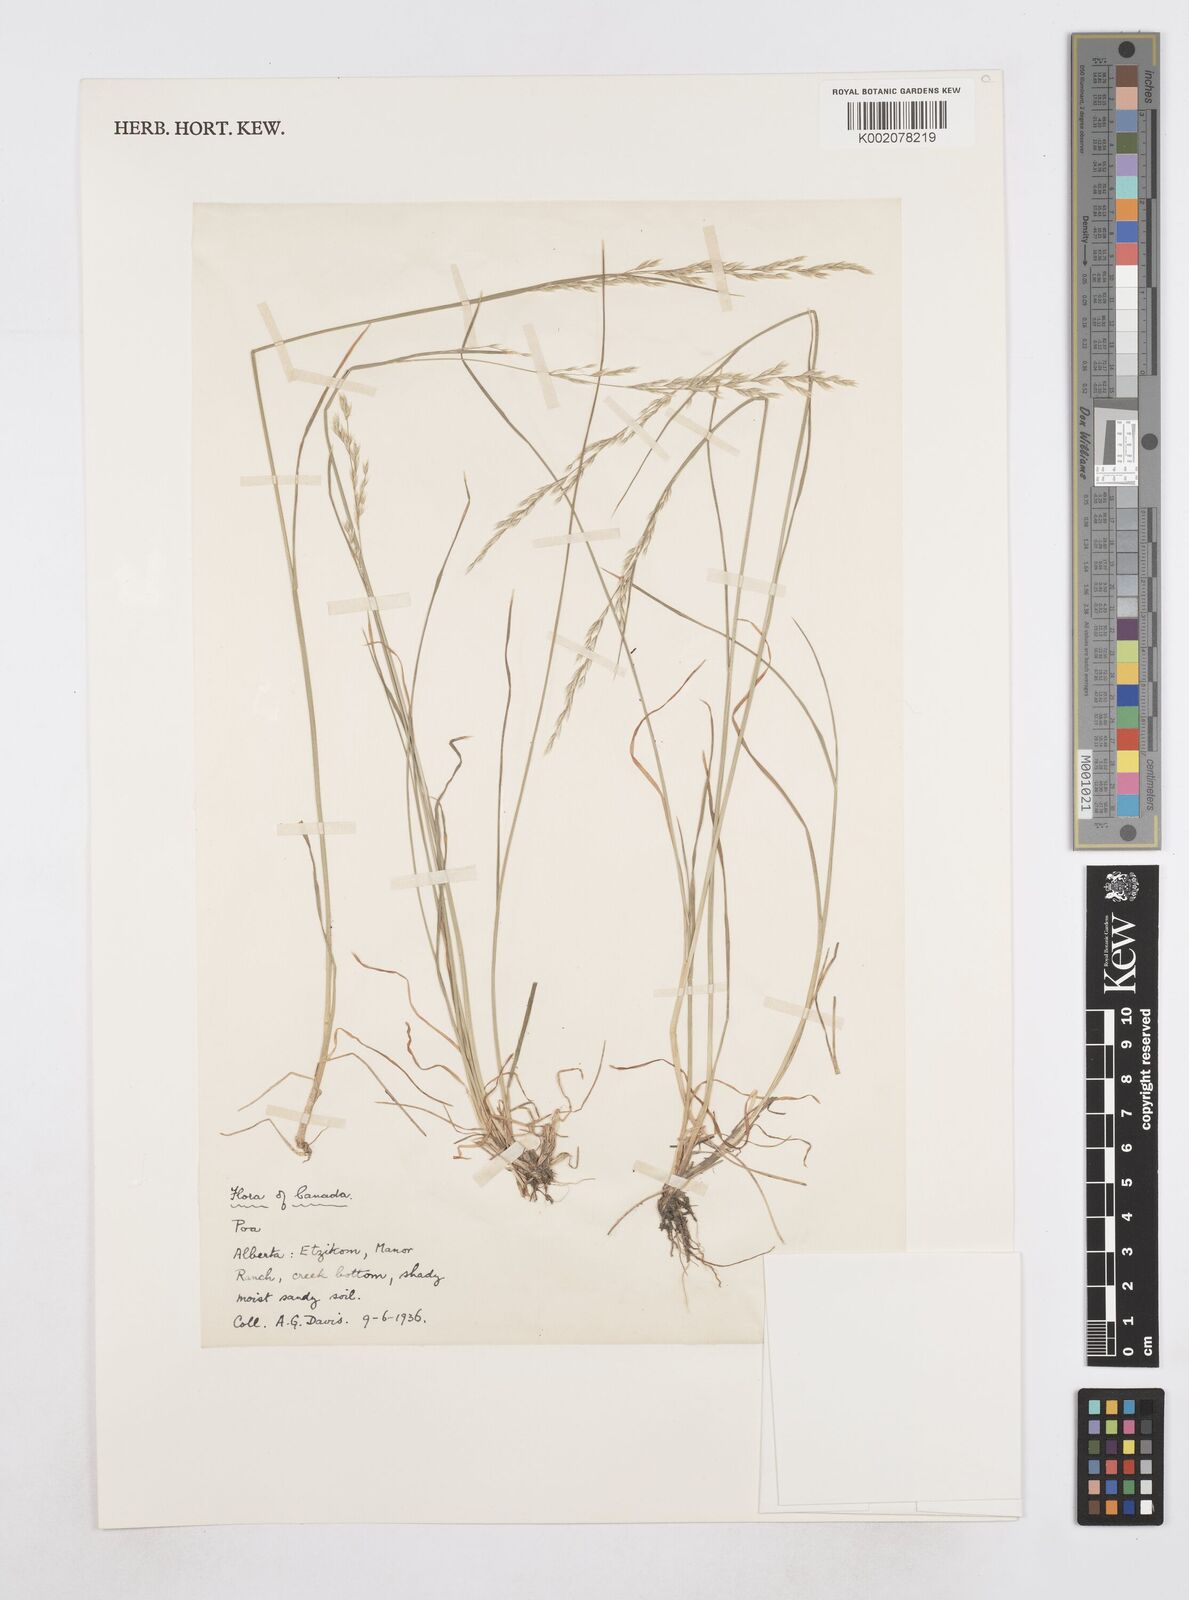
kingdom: Plantae
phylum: Tracheophyta
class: Liliopsida
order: Poales
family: Poaceae
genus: Poa
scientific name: Poa
